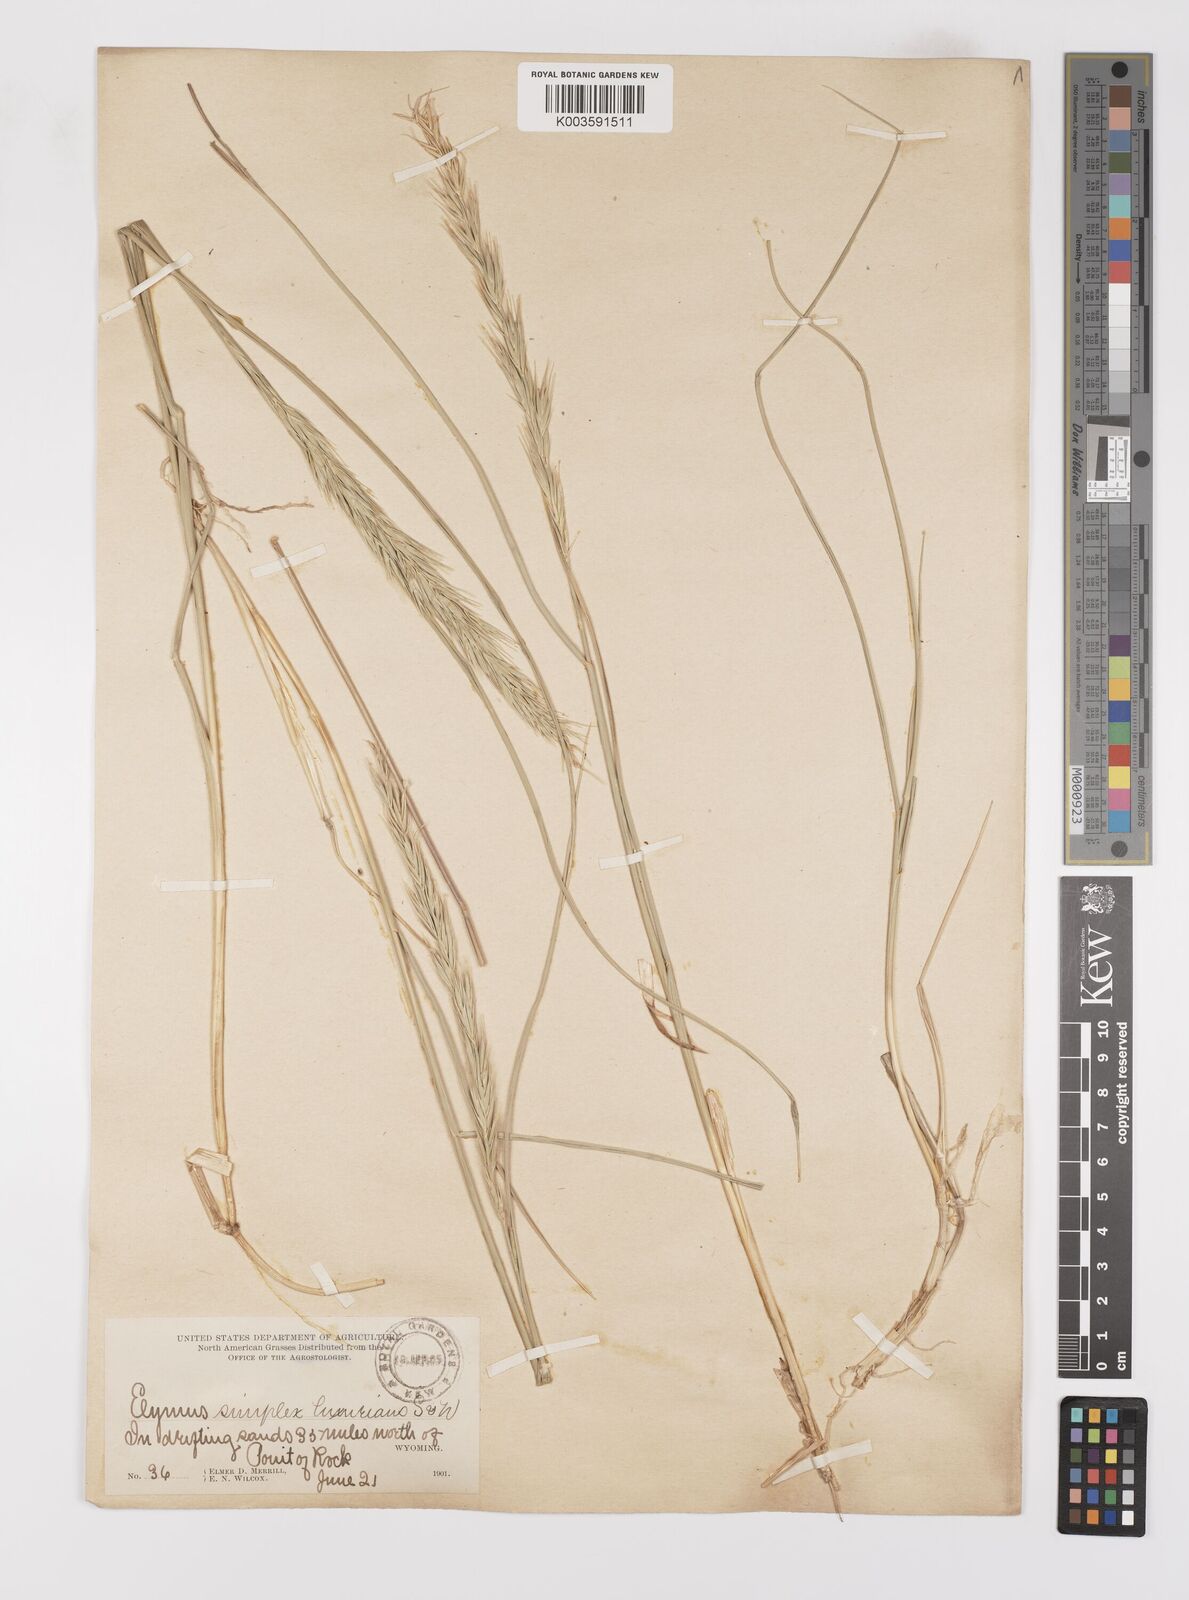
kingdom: Plantae
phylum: Tracheophyta
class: Liliopsida
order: Poales
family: Poaceae
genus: Leymus
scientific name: Leymus triticoides
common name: Beardless wild rye
